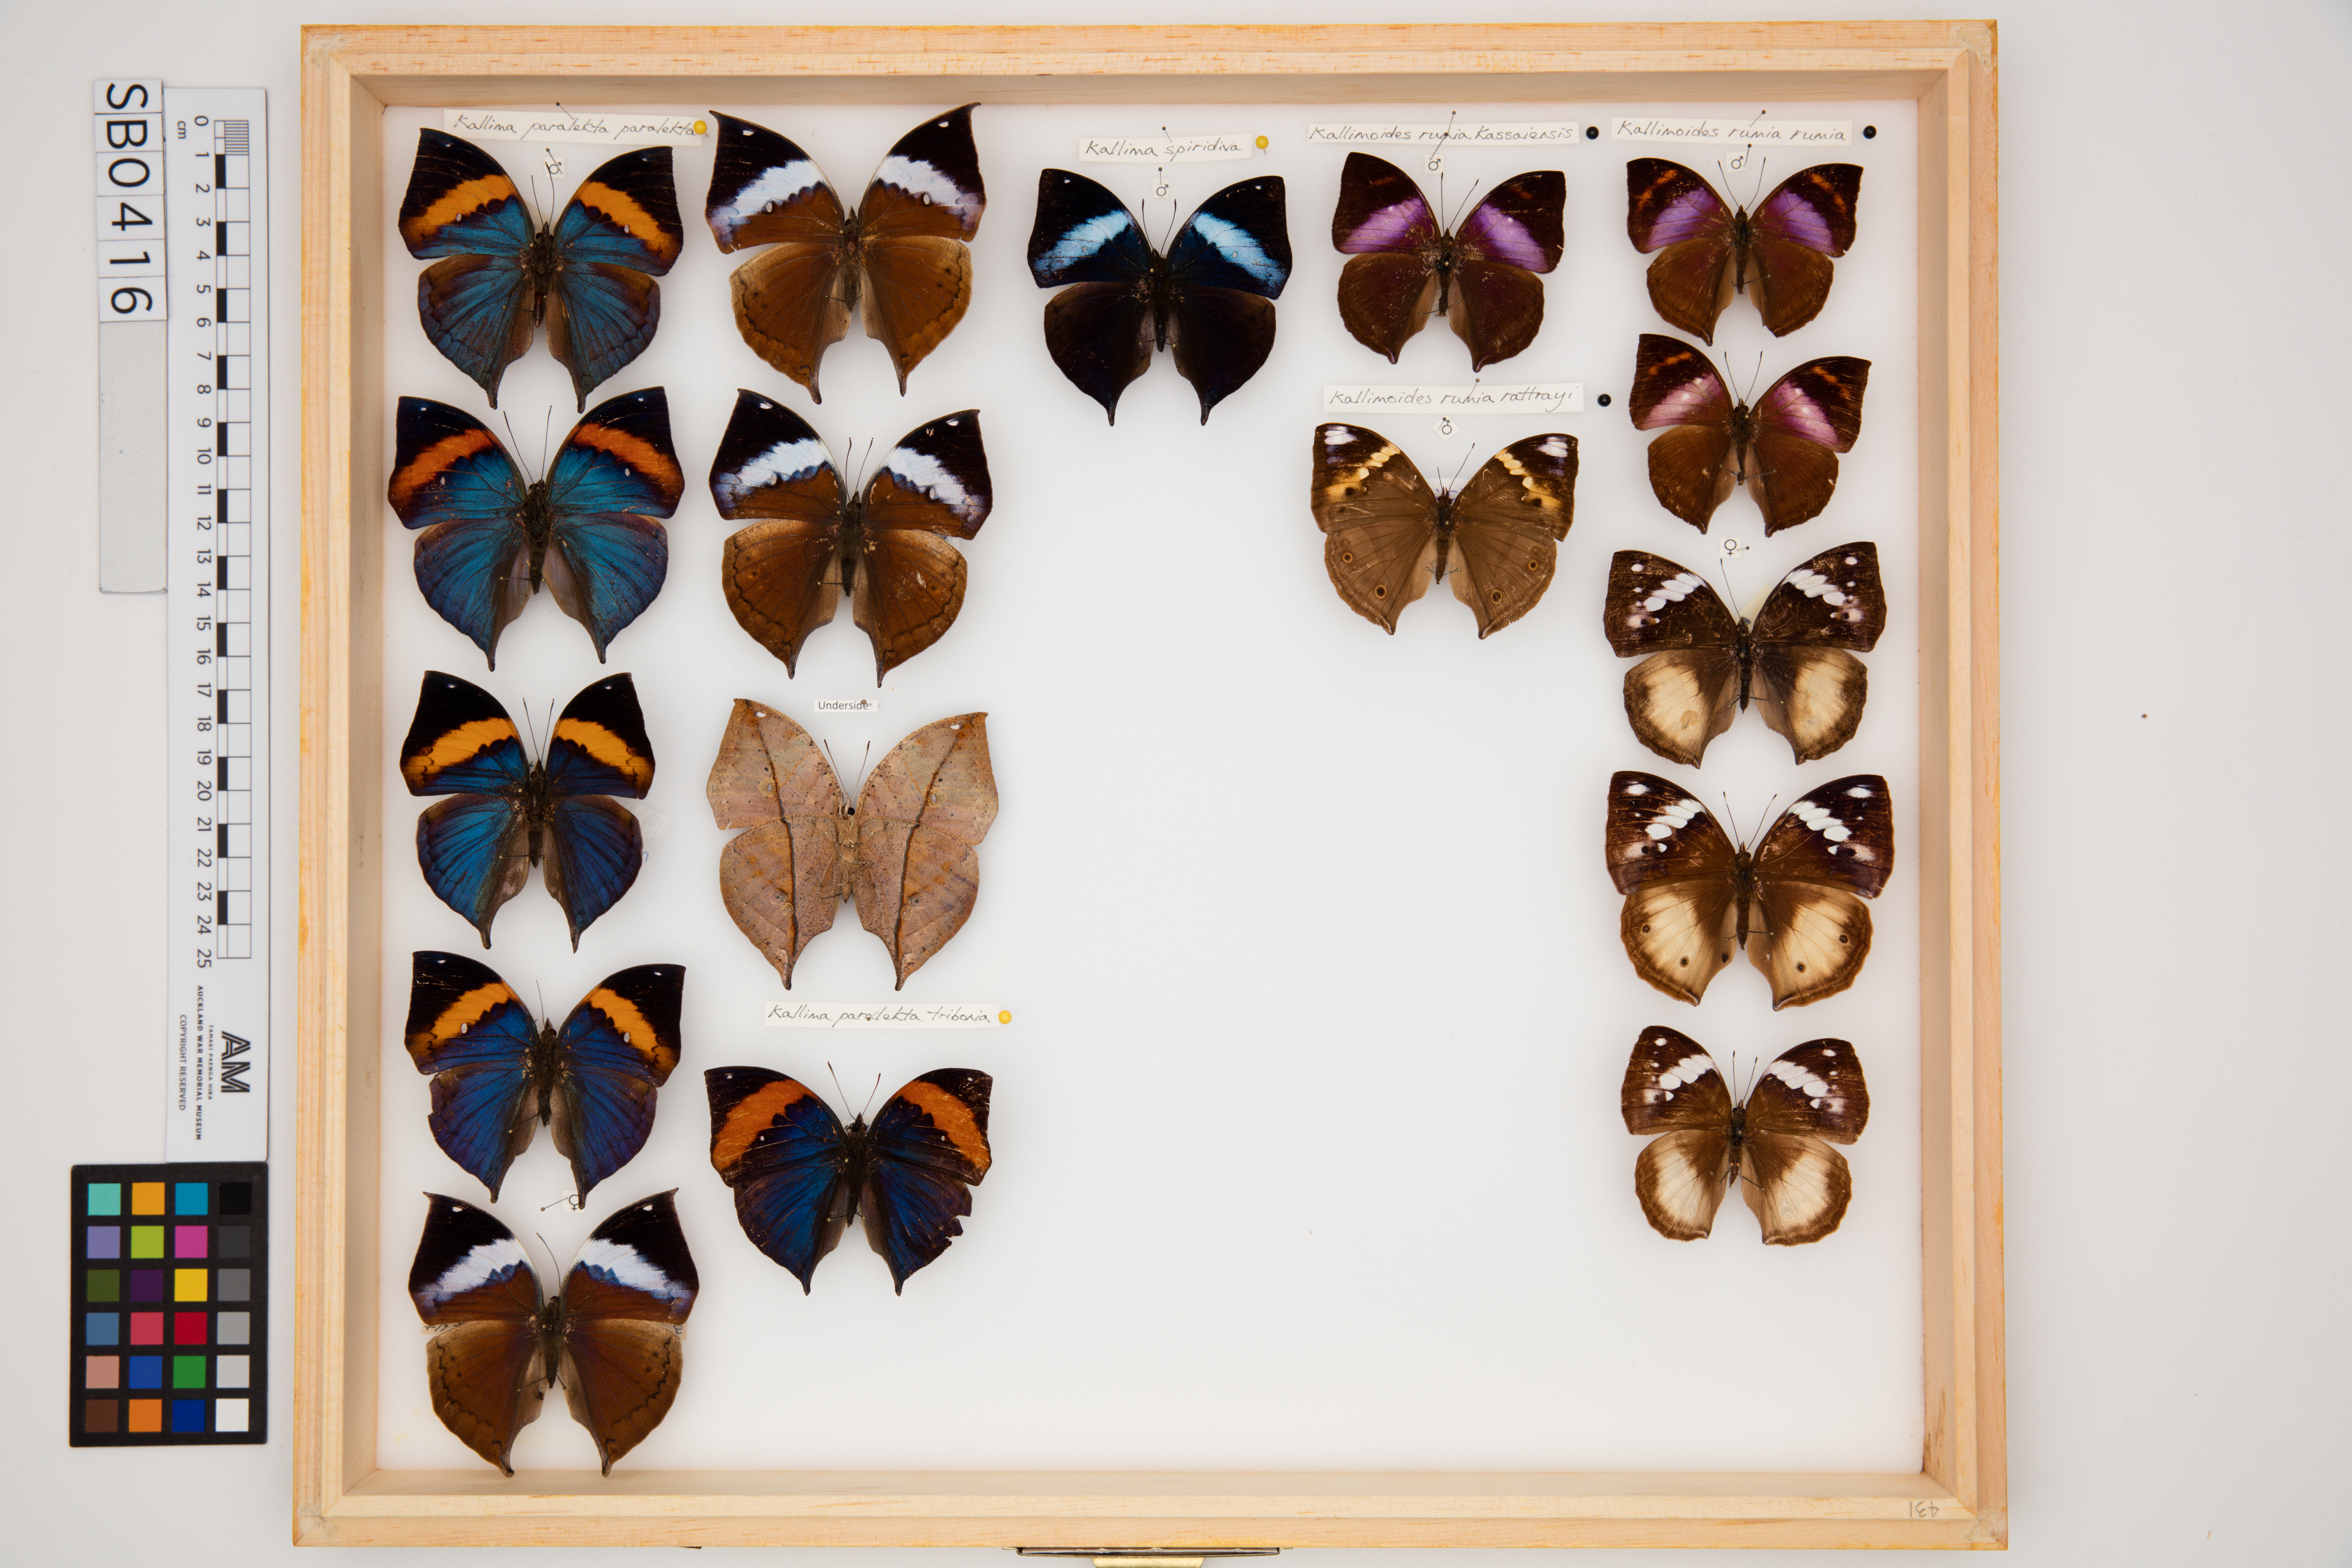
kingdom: Animalia
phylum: Arthropoda
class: Insecta
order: Lepidoptera
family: Nymphalidae
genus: Kallimoides
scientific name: Kallimoides rumia
